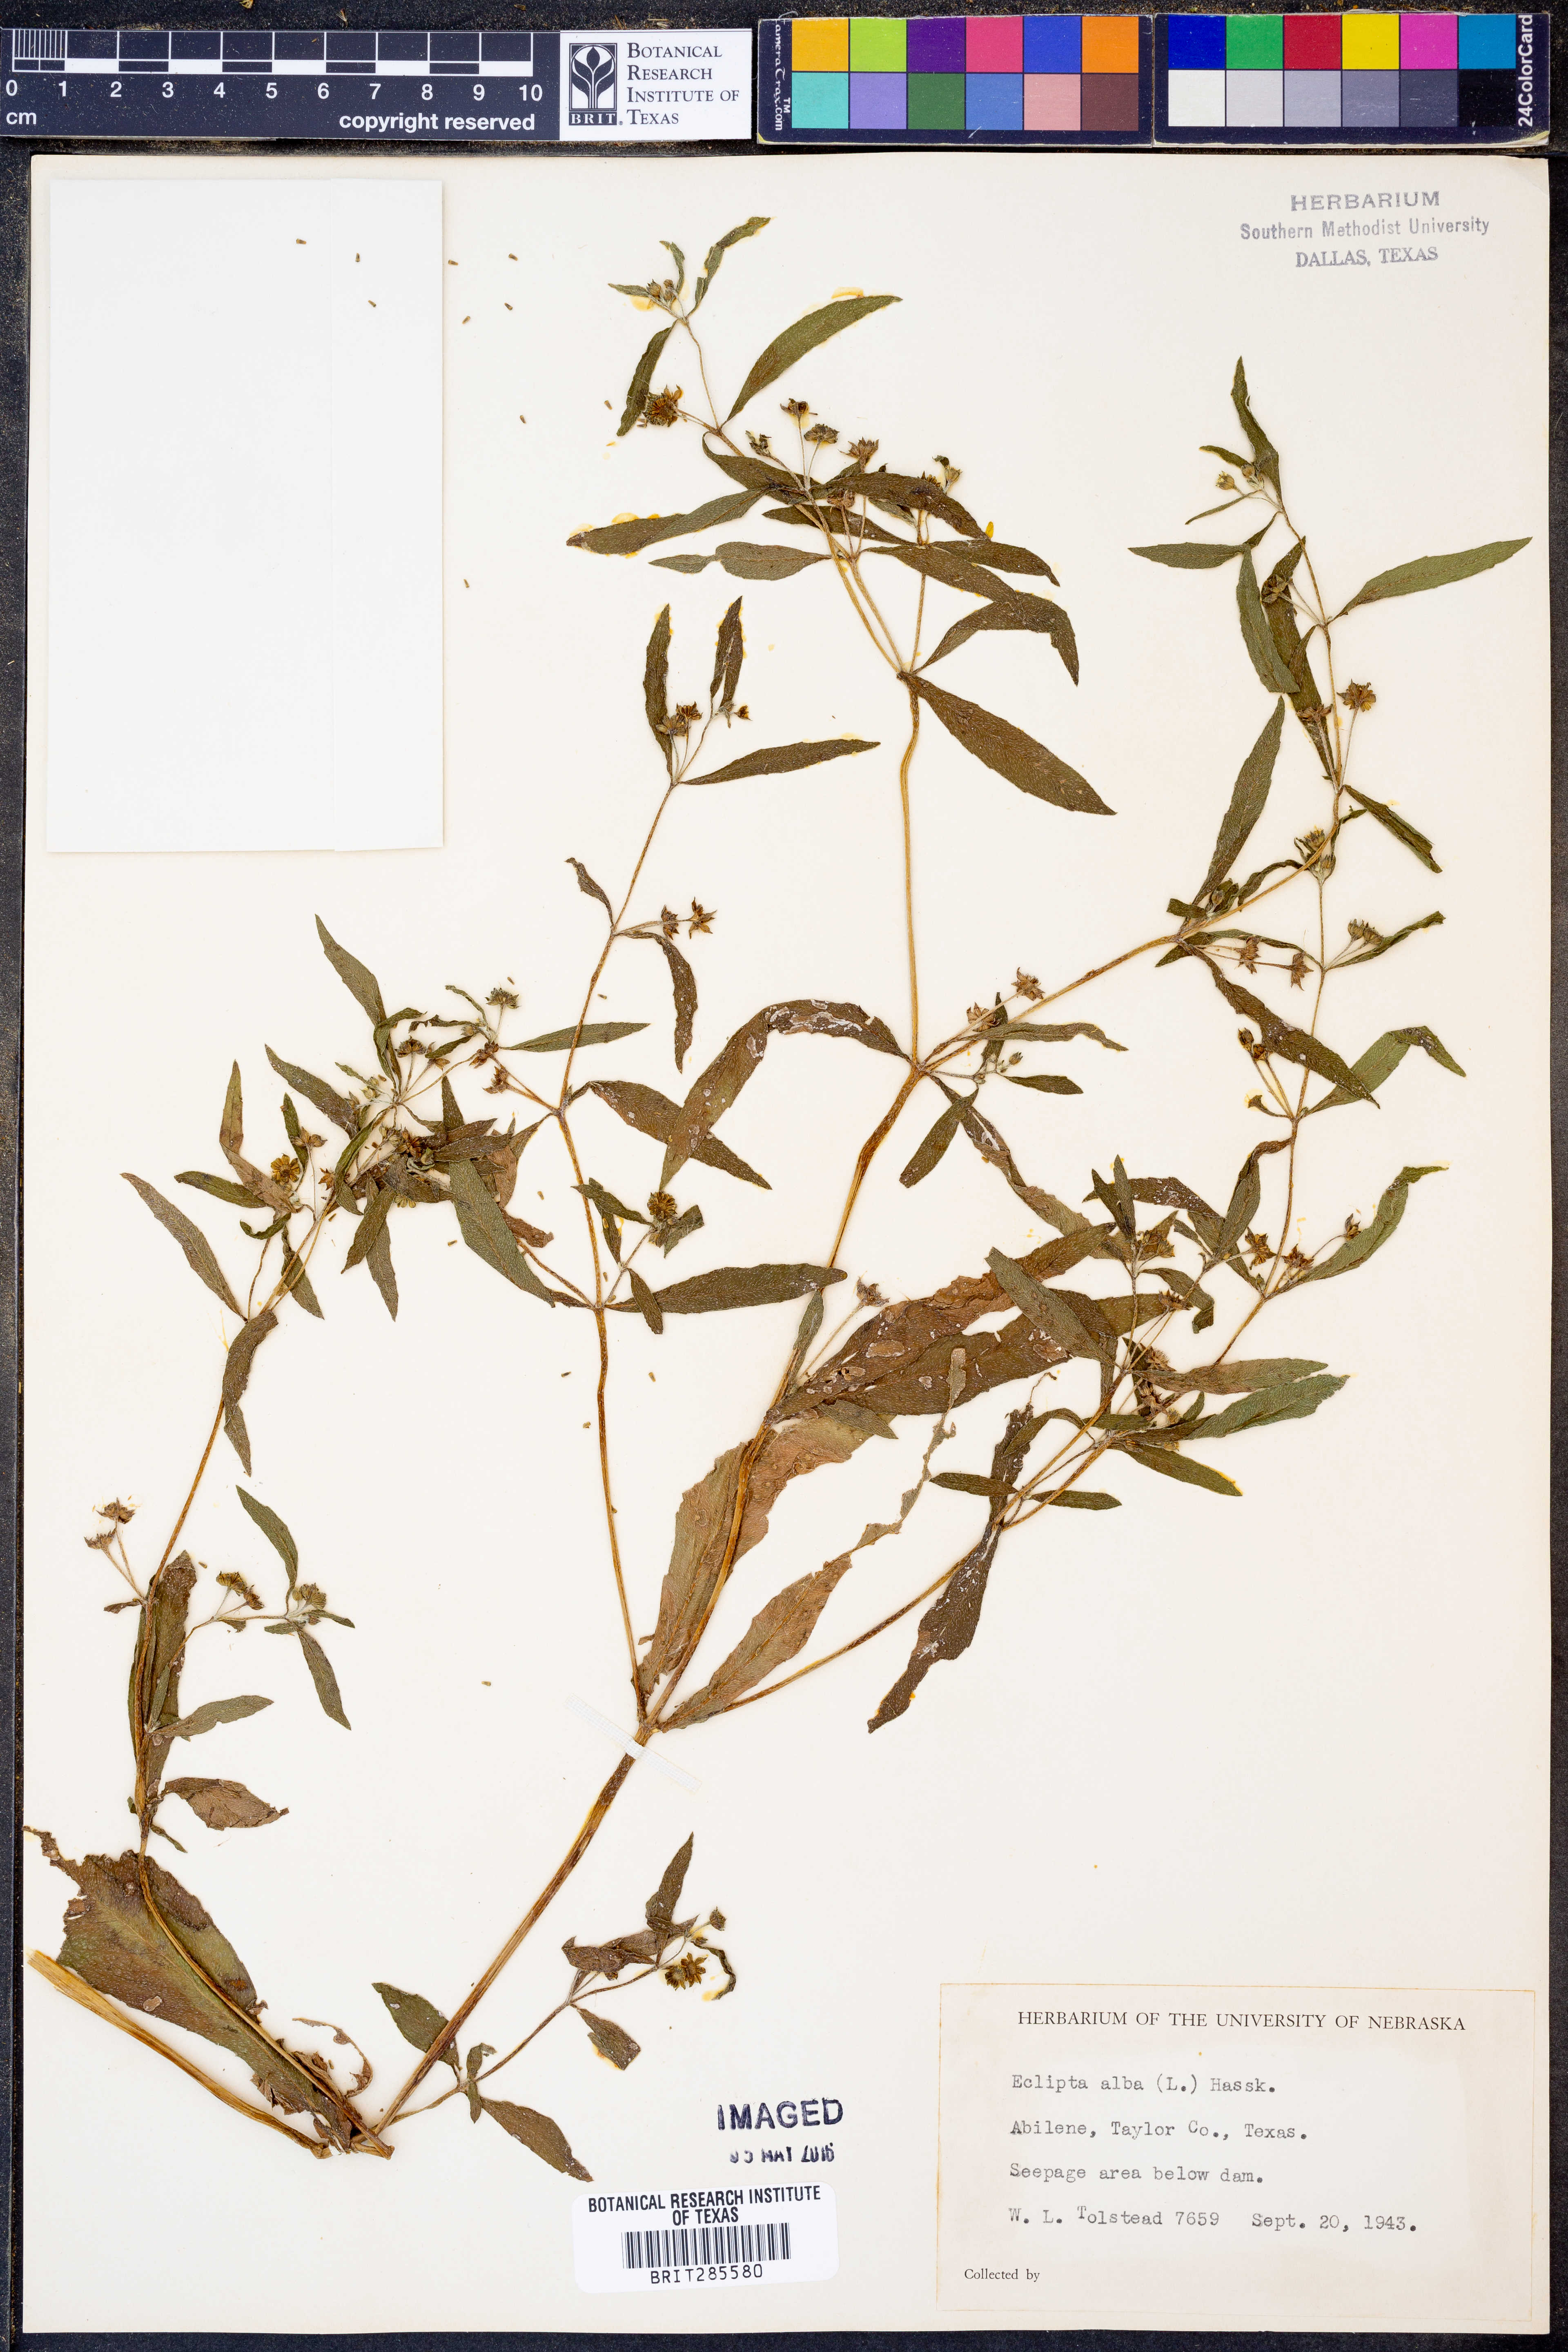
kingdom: Plantae
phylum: Tracheophyta
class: Magnoliopsida
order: Asterales
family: Asteraceae
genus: Eclipta
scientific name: Eclipta alba
